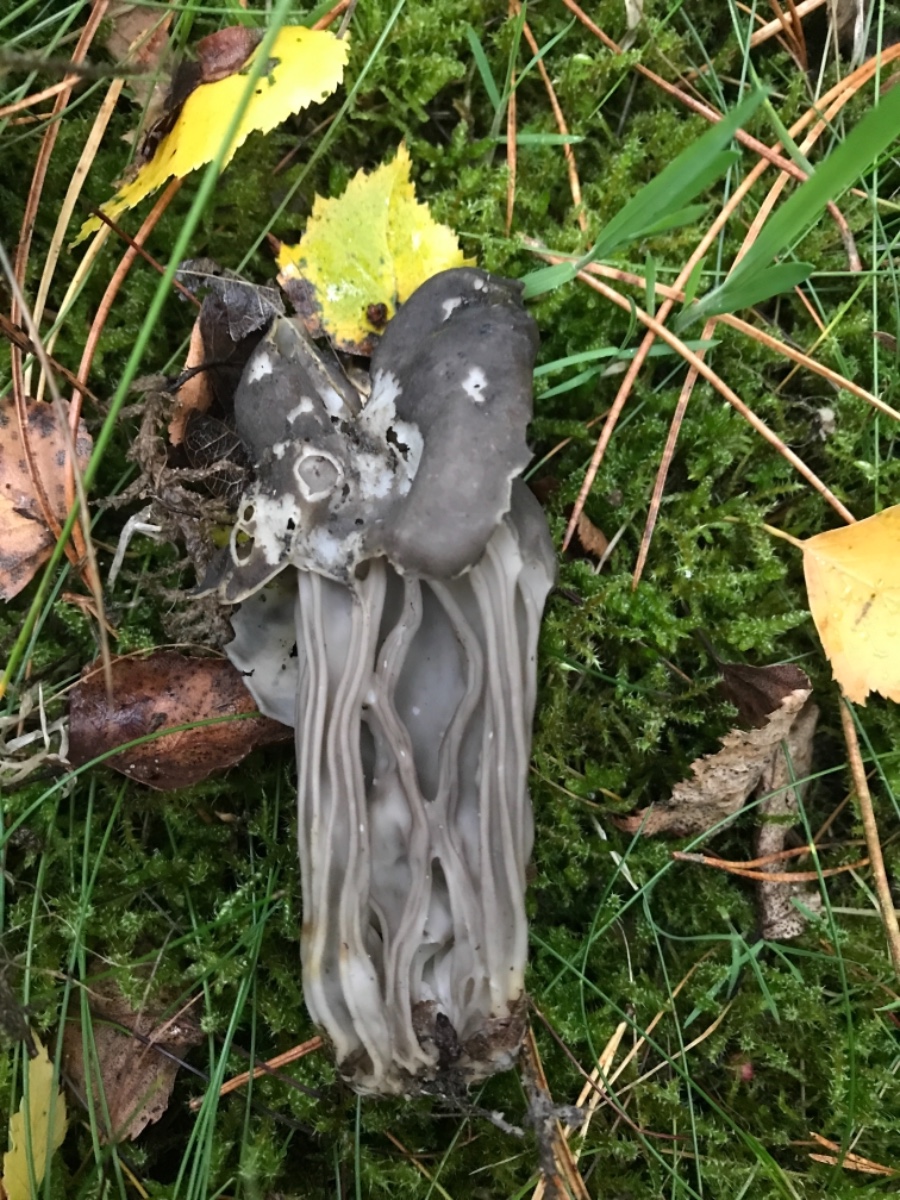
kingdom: Fungi
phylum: Ascomycota
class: Pezizomycetes
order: Pezizales
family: Helvellaceae
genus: Helvella
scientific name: Helvella lacunosa
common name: grubet foldhat
